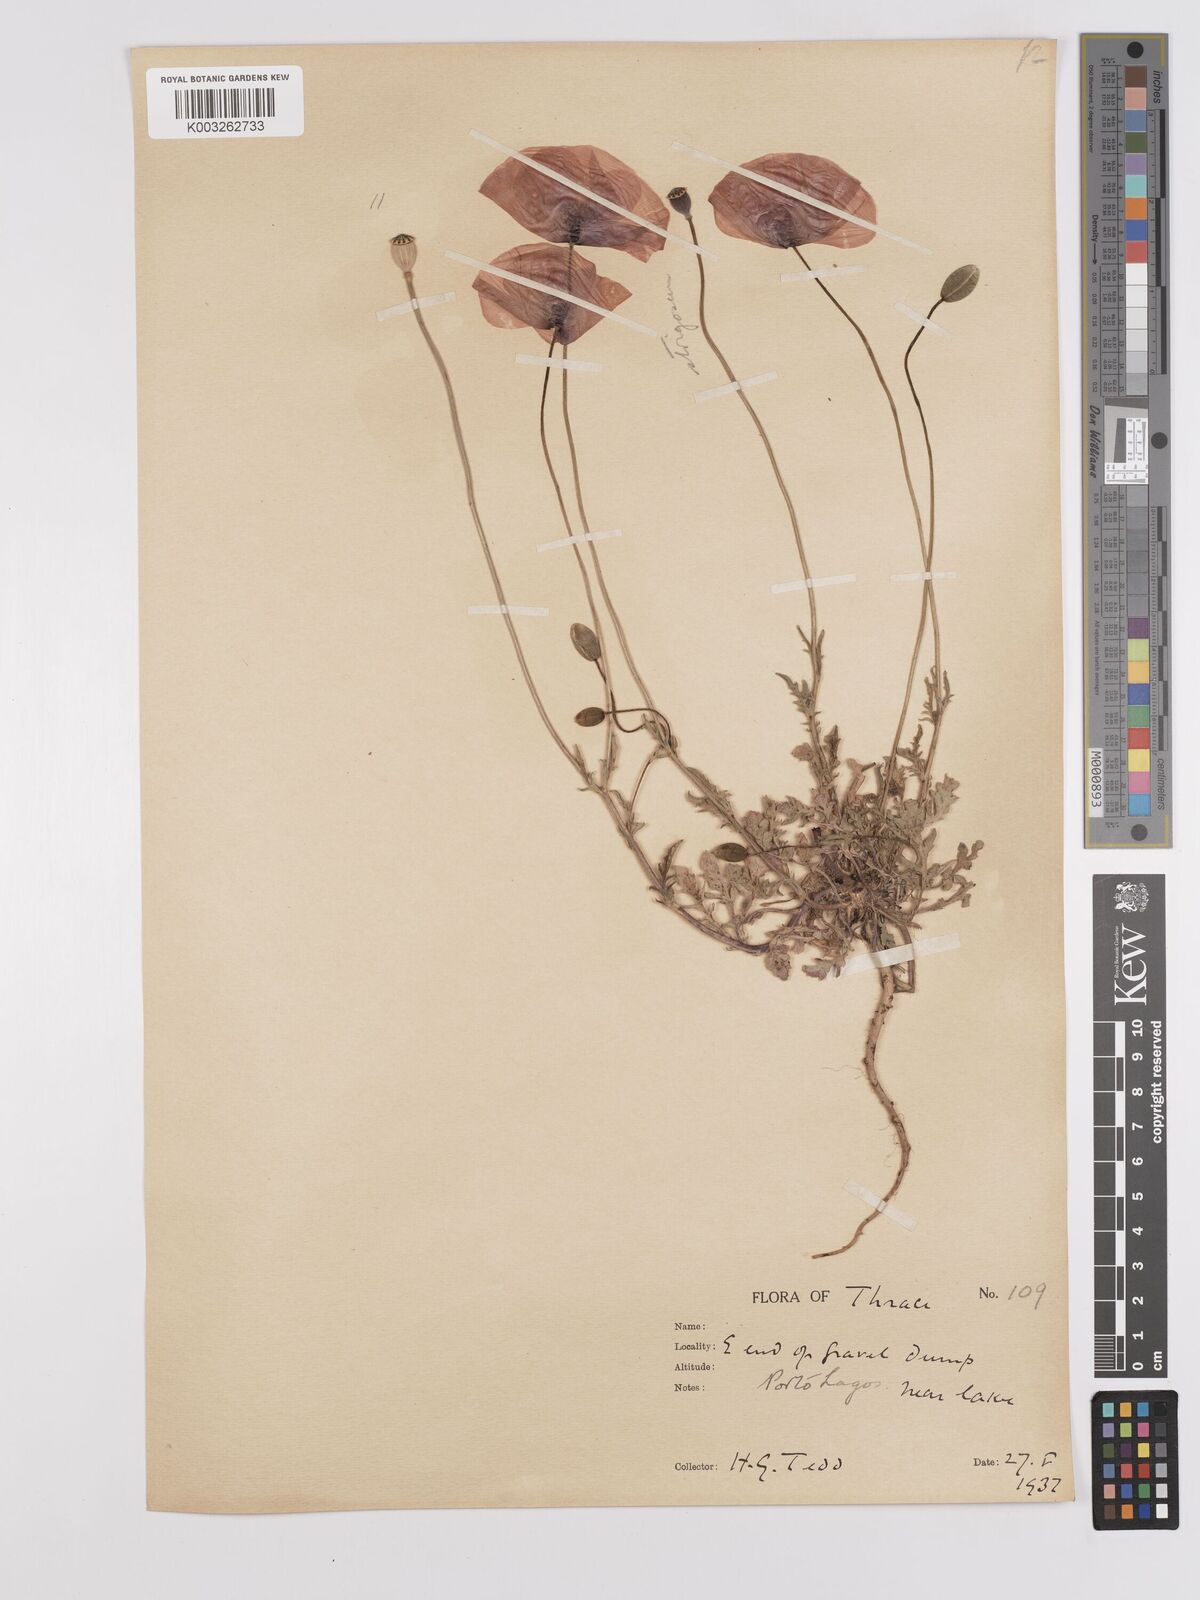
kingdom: Plantae
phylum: Tracheophyta
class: Magnoliopsida
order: Ranunculales
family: Papaveraceae
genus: Papaver
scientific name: Papaver
